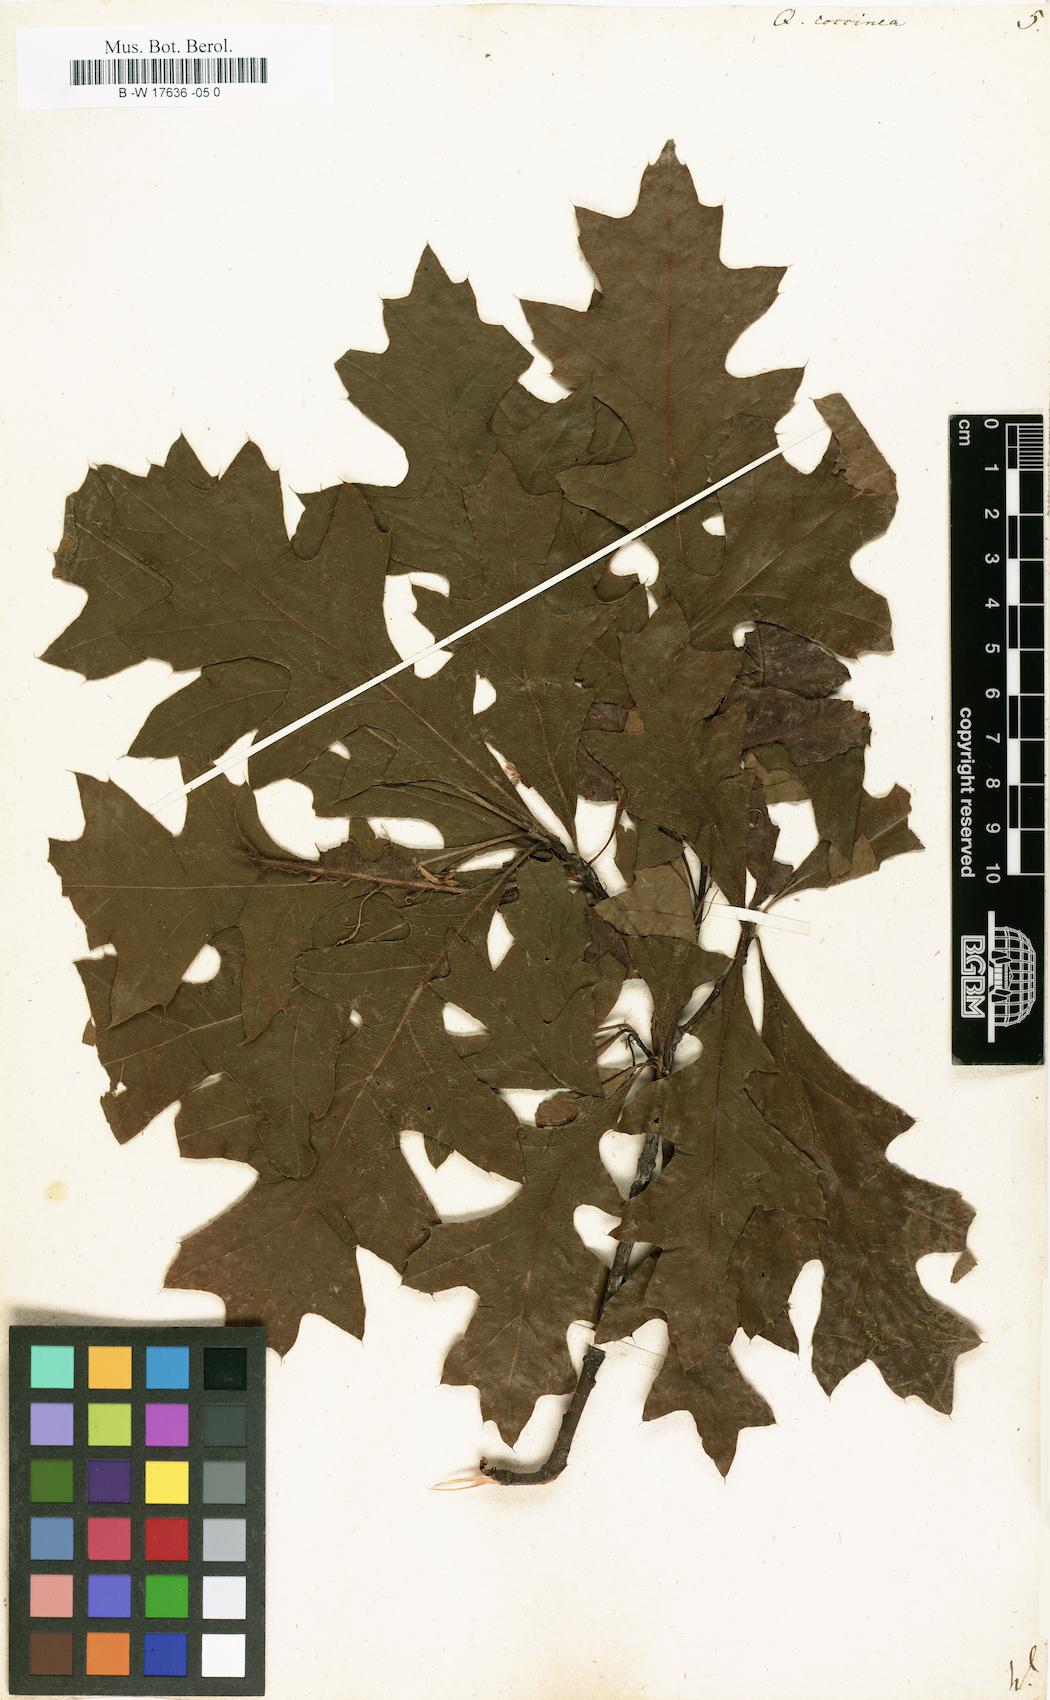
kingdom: Plantae
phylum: Tracheophyta
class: Magnoliopsida
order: Fagales
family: Fagaceae
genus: Quercus
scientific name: Quercus coccinea
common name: Scarlet oak
